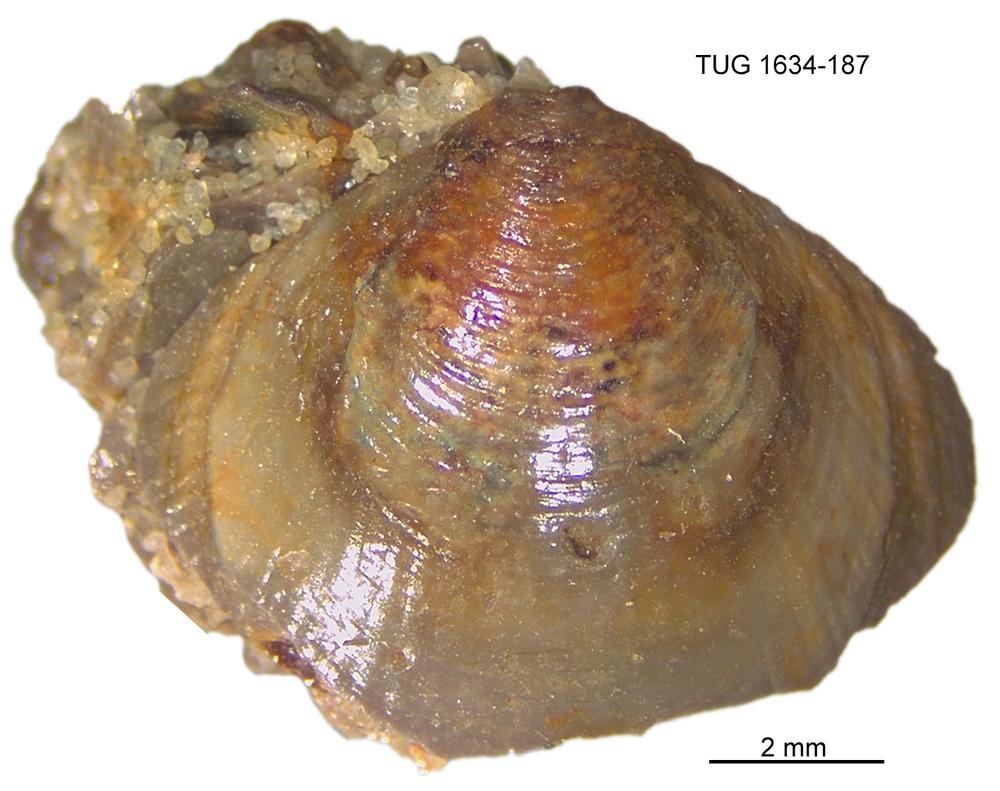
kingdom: Animalia
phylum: Porifera
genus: Ungula
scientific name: Ungula
